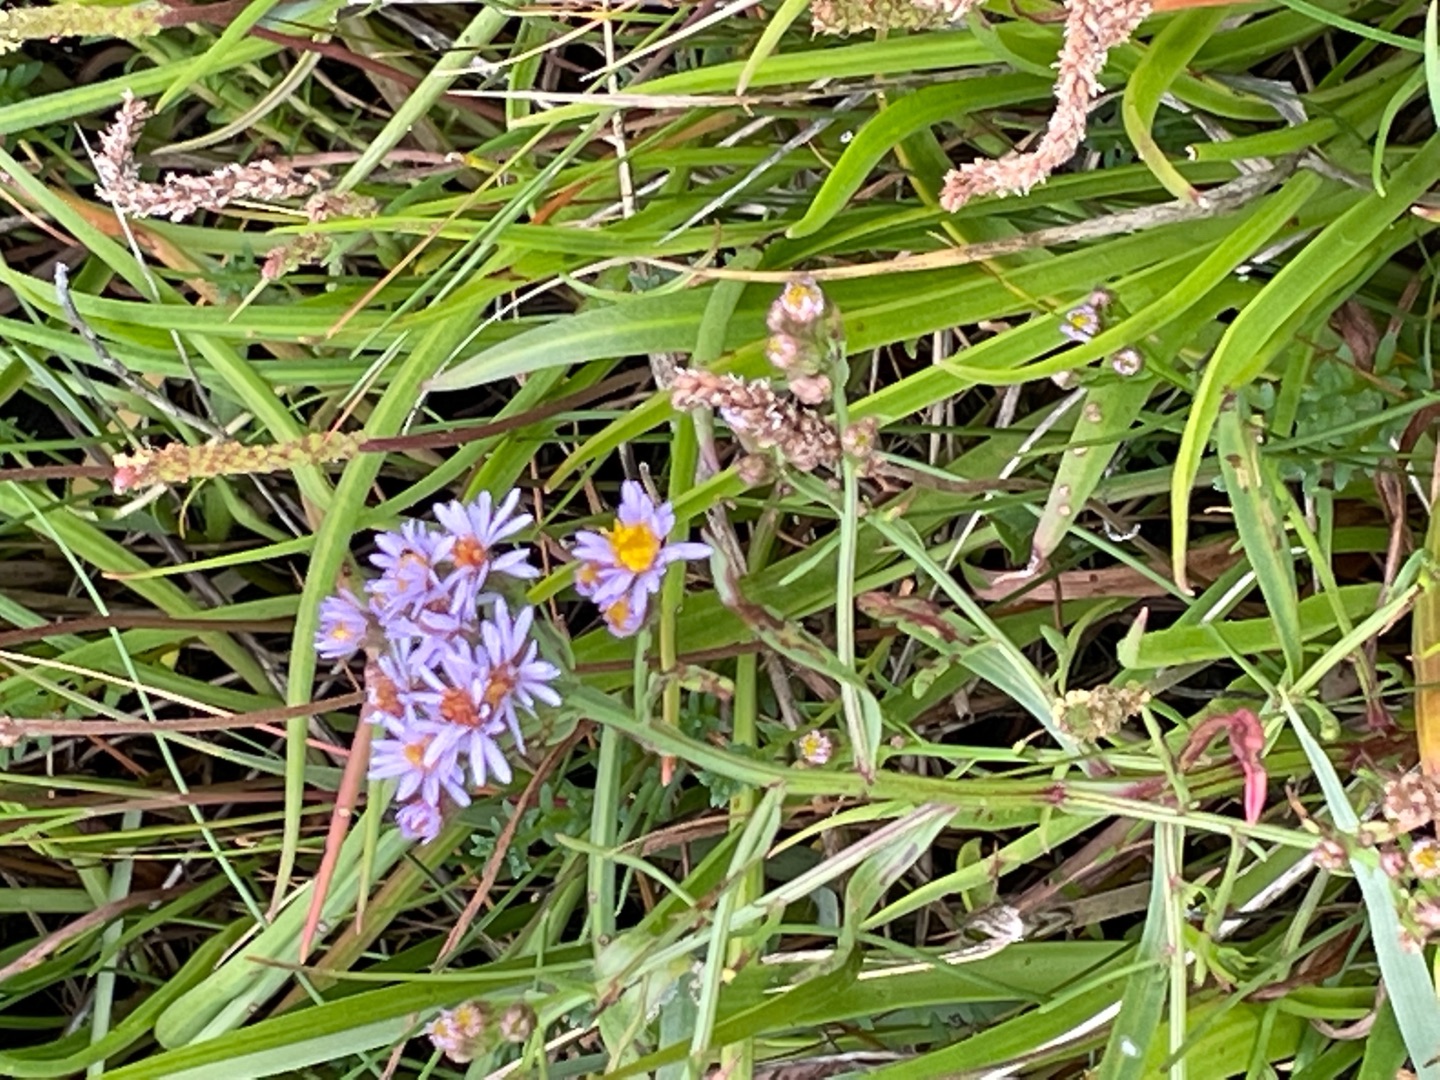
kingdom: Plantae
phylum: Tracheophyta
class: Magnoliopsida
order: Asterales
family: Asteraceae
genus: Tripolium
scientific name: Tripolium pannonicum
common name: Strandasters
